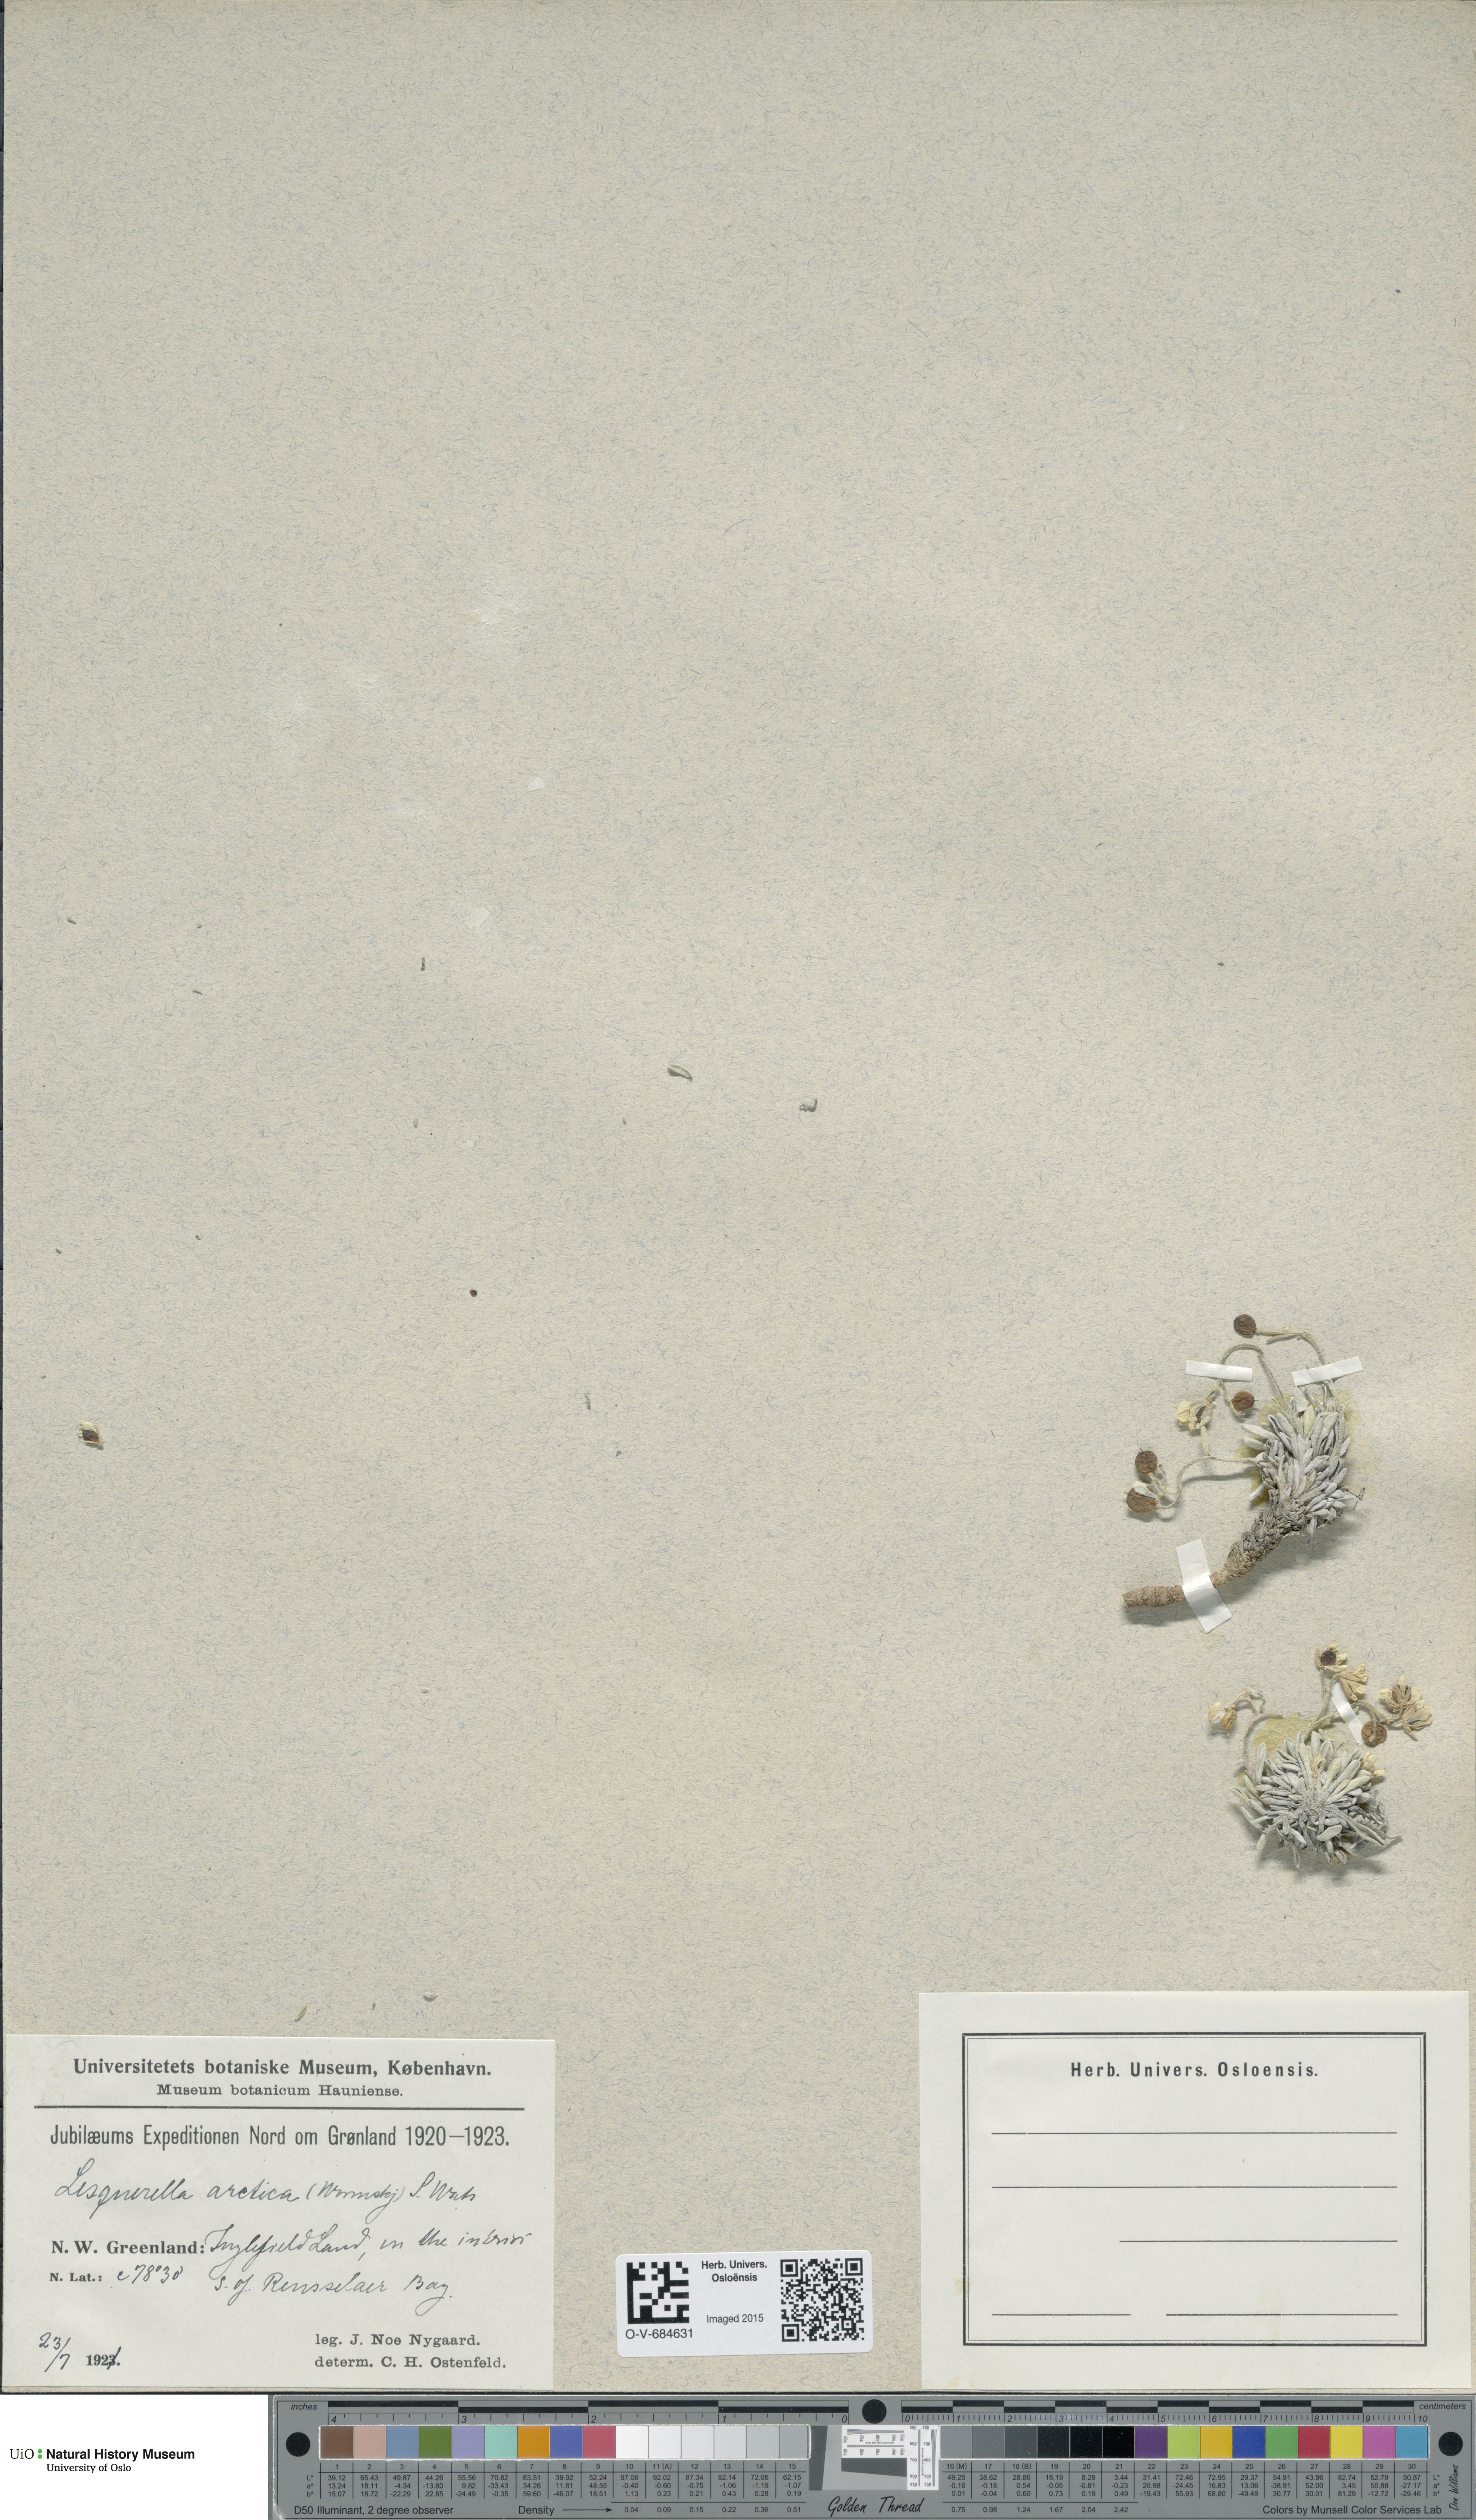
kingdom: Plantae
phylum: Tracheophyta
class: Magnoliopsida
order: Brassicales
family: Brassicaceae
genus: Physaria
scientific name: Physaria arctica
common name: Arctic bladderpod
